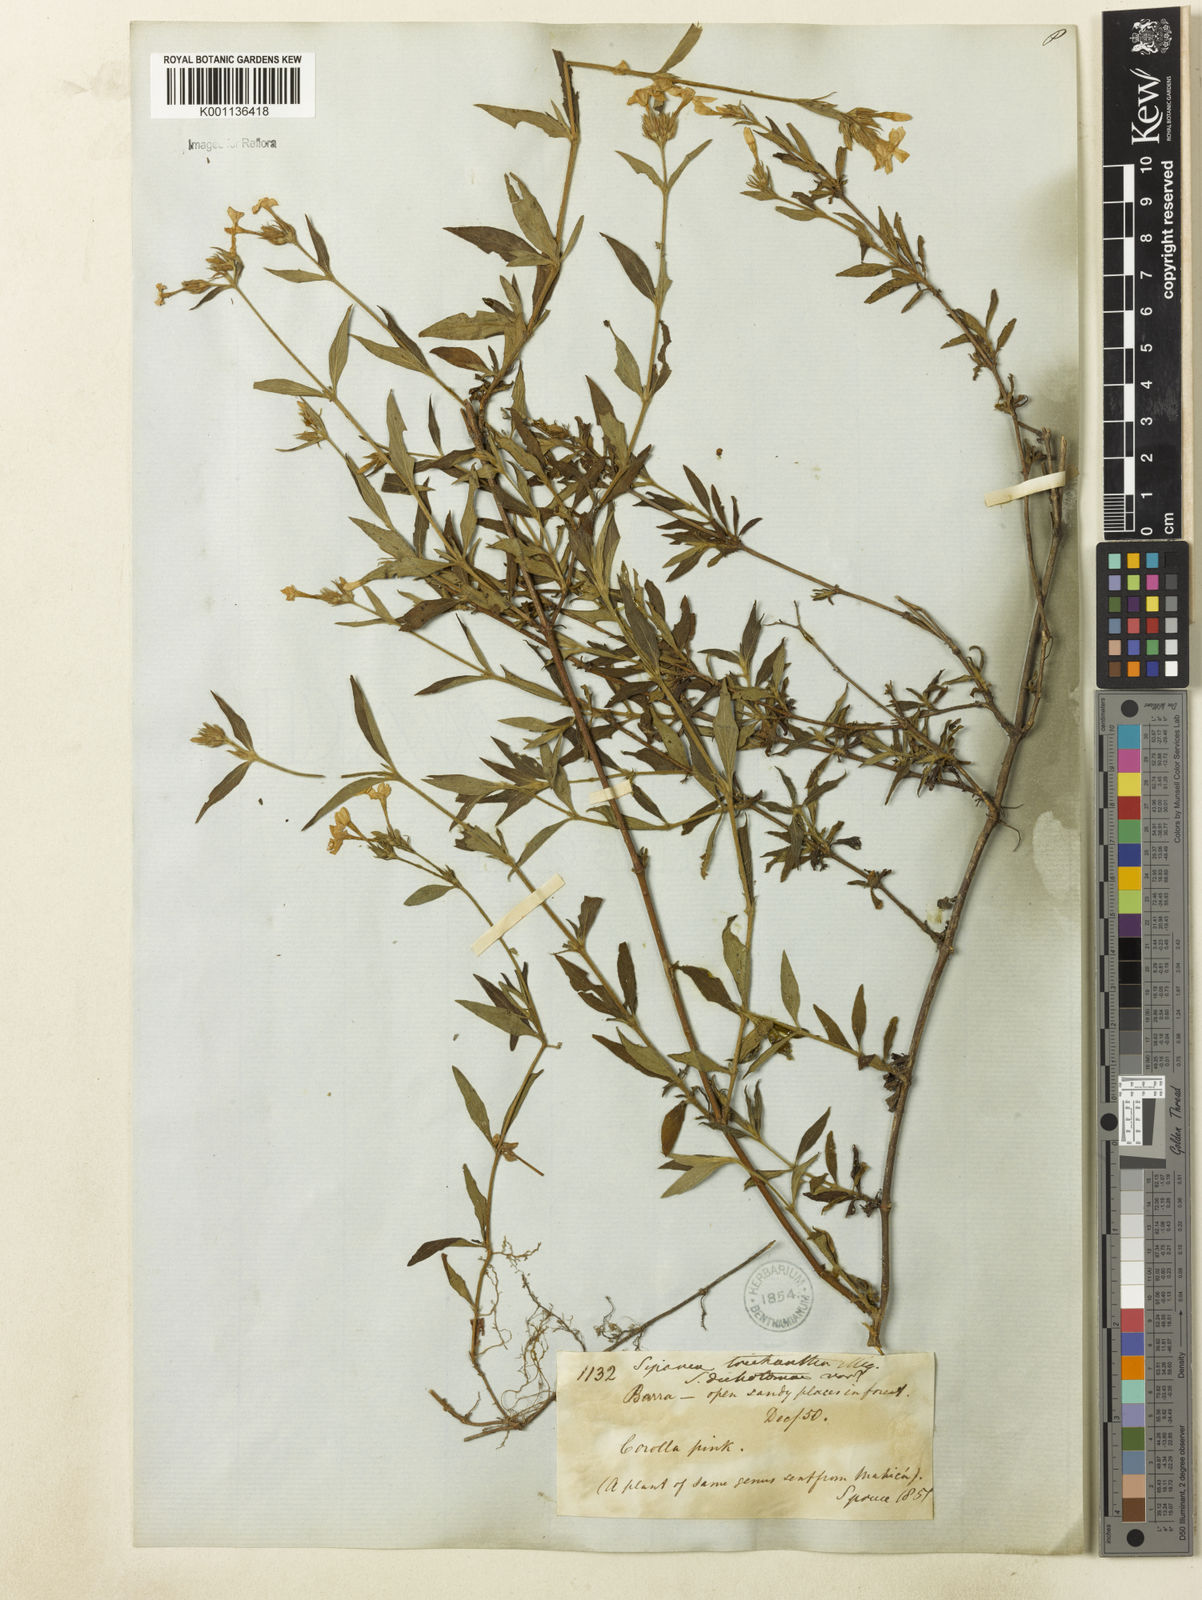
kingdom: Plantae
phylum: Tracheophyta
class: Magnoliopsida
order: Gentianales
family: Rubiaceae
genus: Sipanea
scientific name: Sipanea galioides
